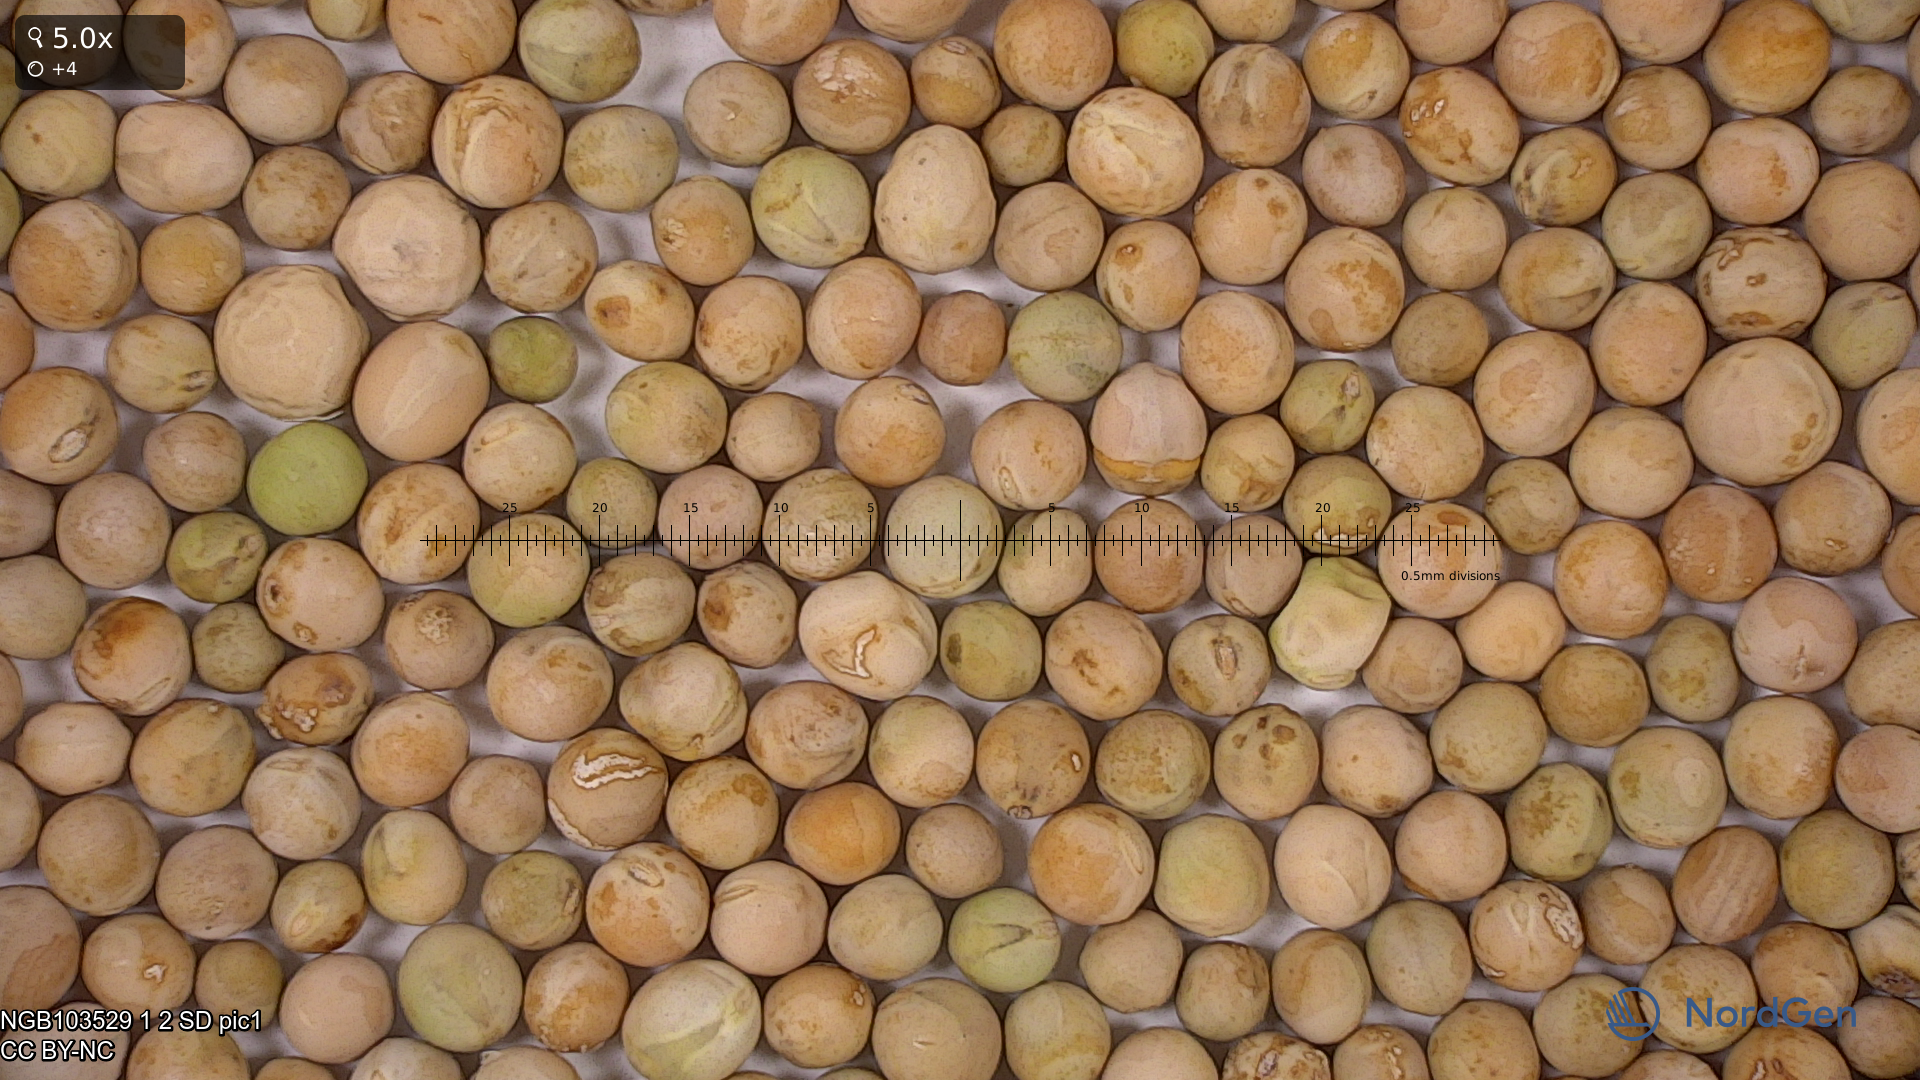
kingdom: Plantae
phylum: Tracheophyta
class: Magnoliopsida
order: Fabales
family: Fabaceae
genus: Lathyrus
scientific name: Lathyrus oleraceus
